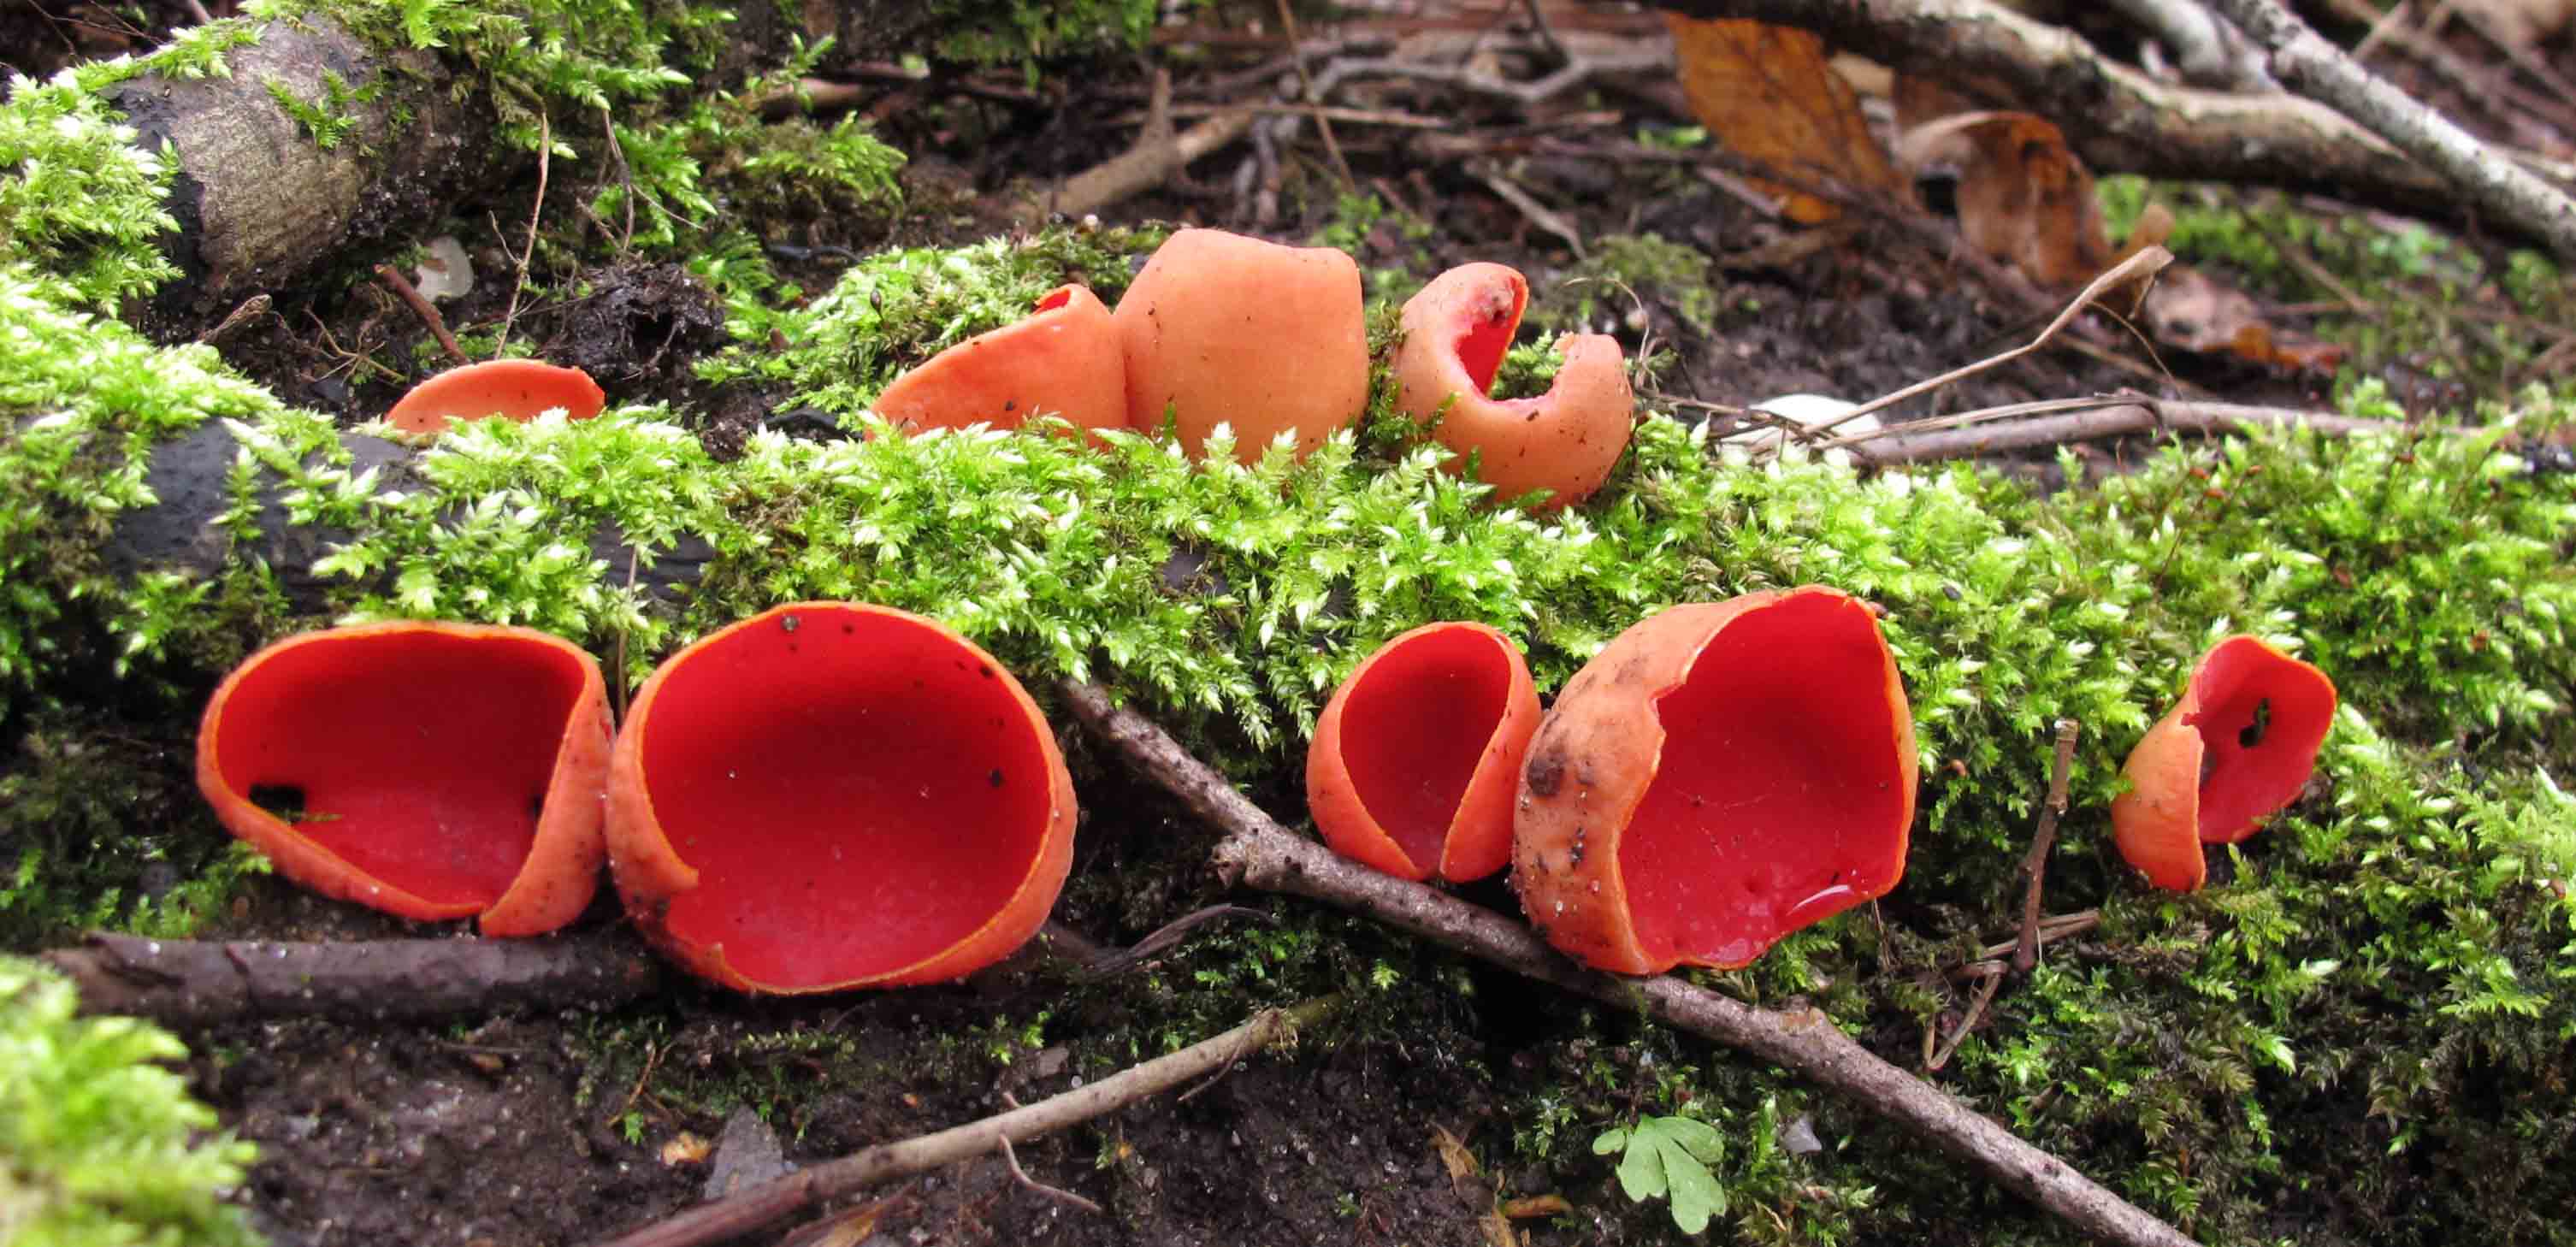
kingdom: Fungi
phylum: Ascomycota
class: Pezizomycetes
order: Pezizales
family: Sarcoscyphaceae
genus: Sarcoscypha
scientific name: Sarcoscypha austriaca
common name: krølhåret pragtbæger
